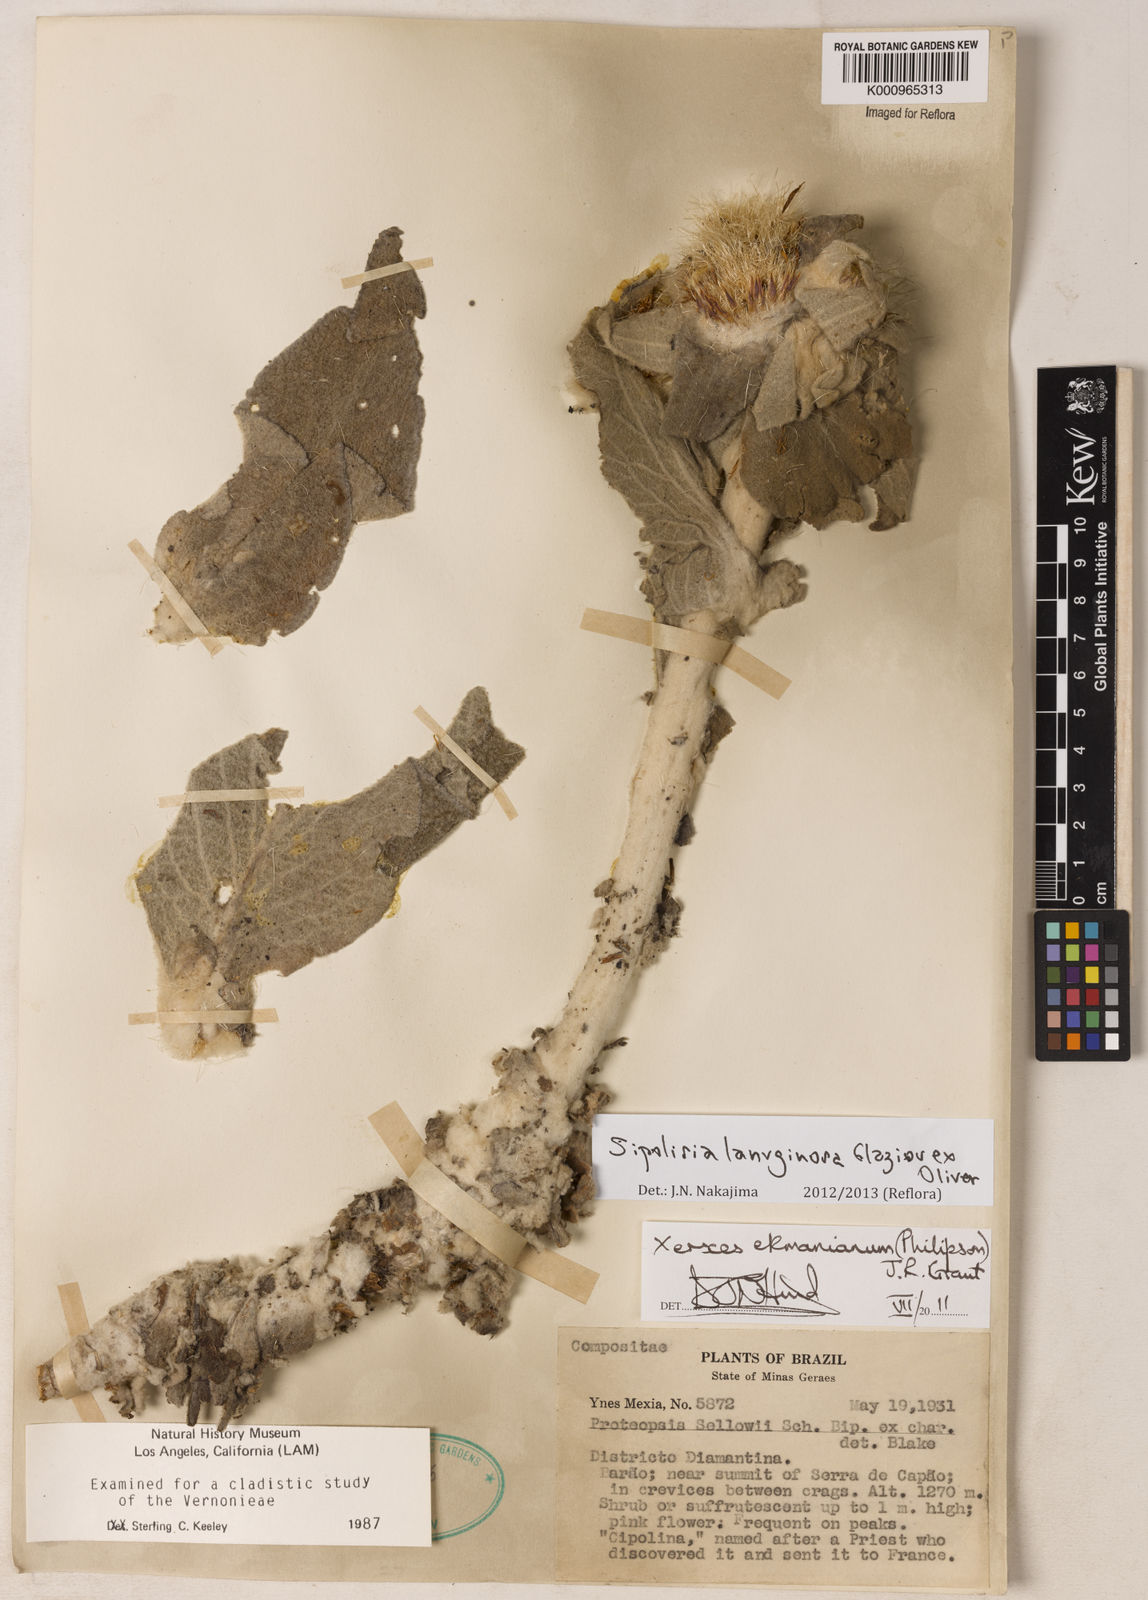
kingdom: Plantae
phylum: Tracheophyta
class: Magnoliopsida
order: Asterales
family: Asteraceae
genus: Heterocoma
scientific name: Heterocoma lanuginosa
